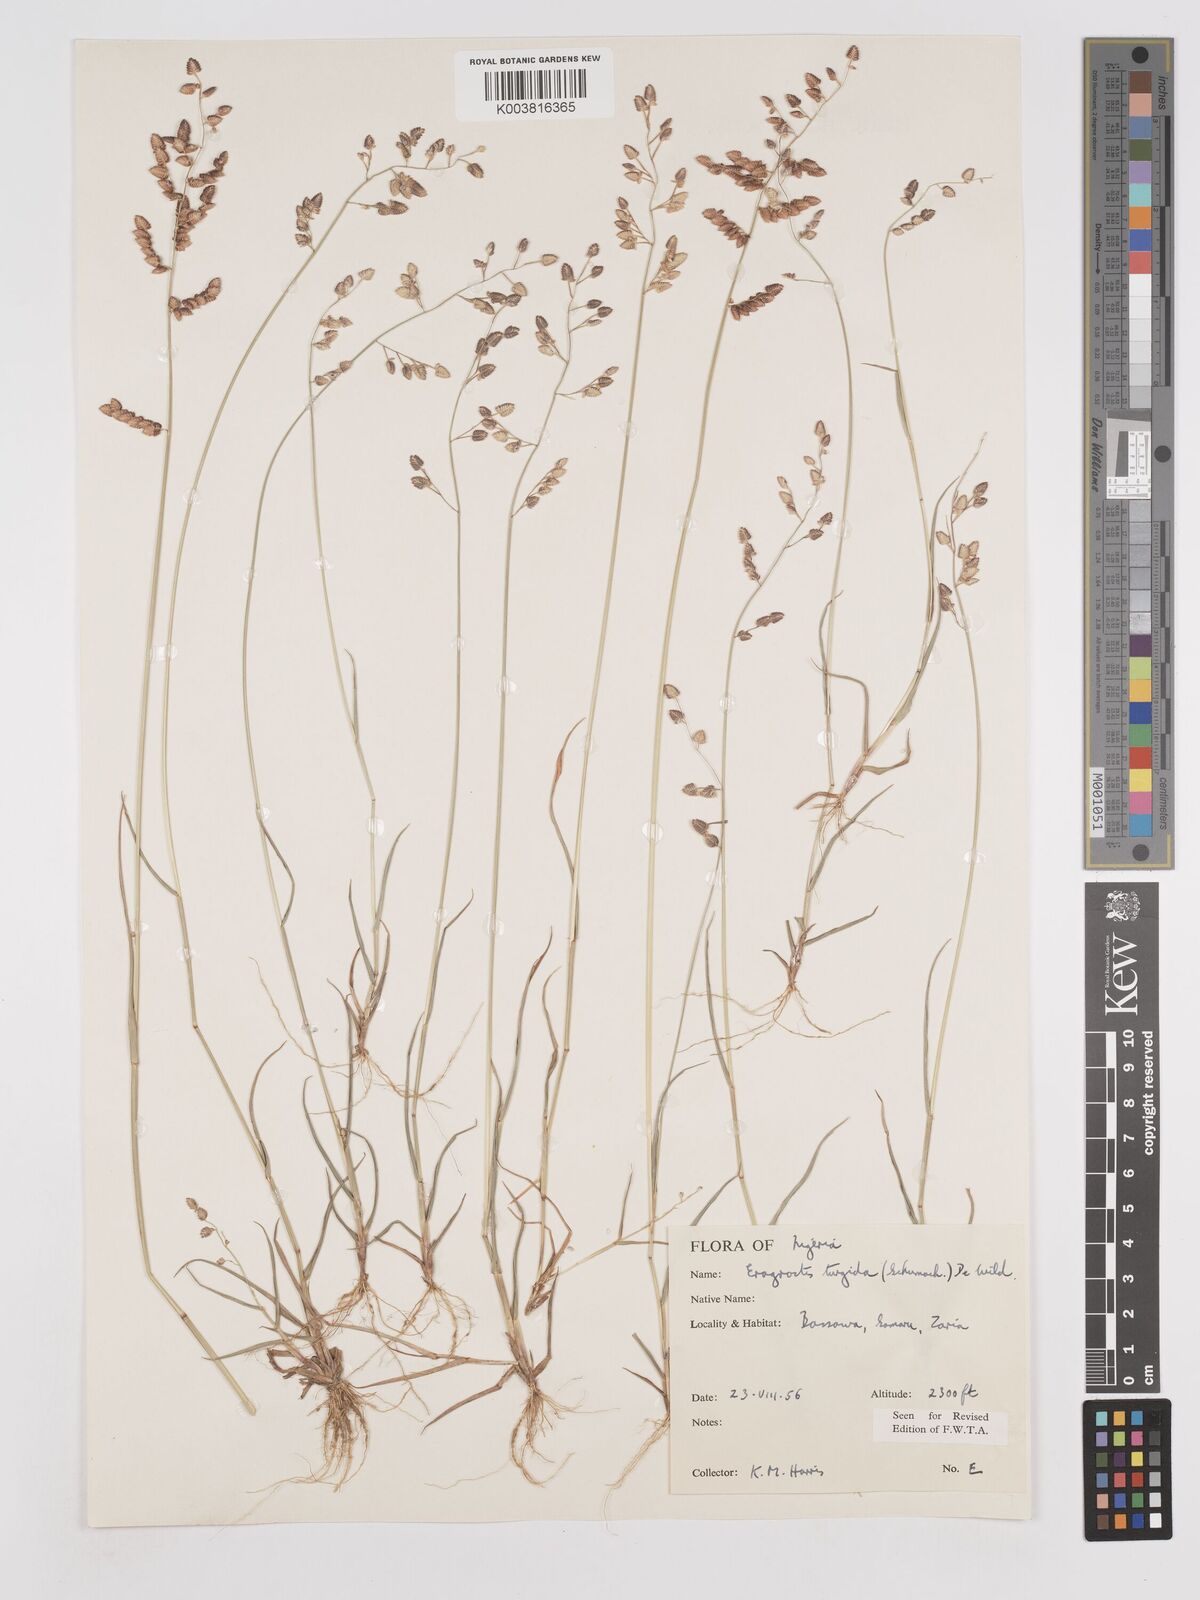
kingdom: Plantae
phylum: Tracheophyta
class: Liliopsida
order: Poales
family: Poaceae
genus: Eragrostis
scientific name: Eragrostis turgida
